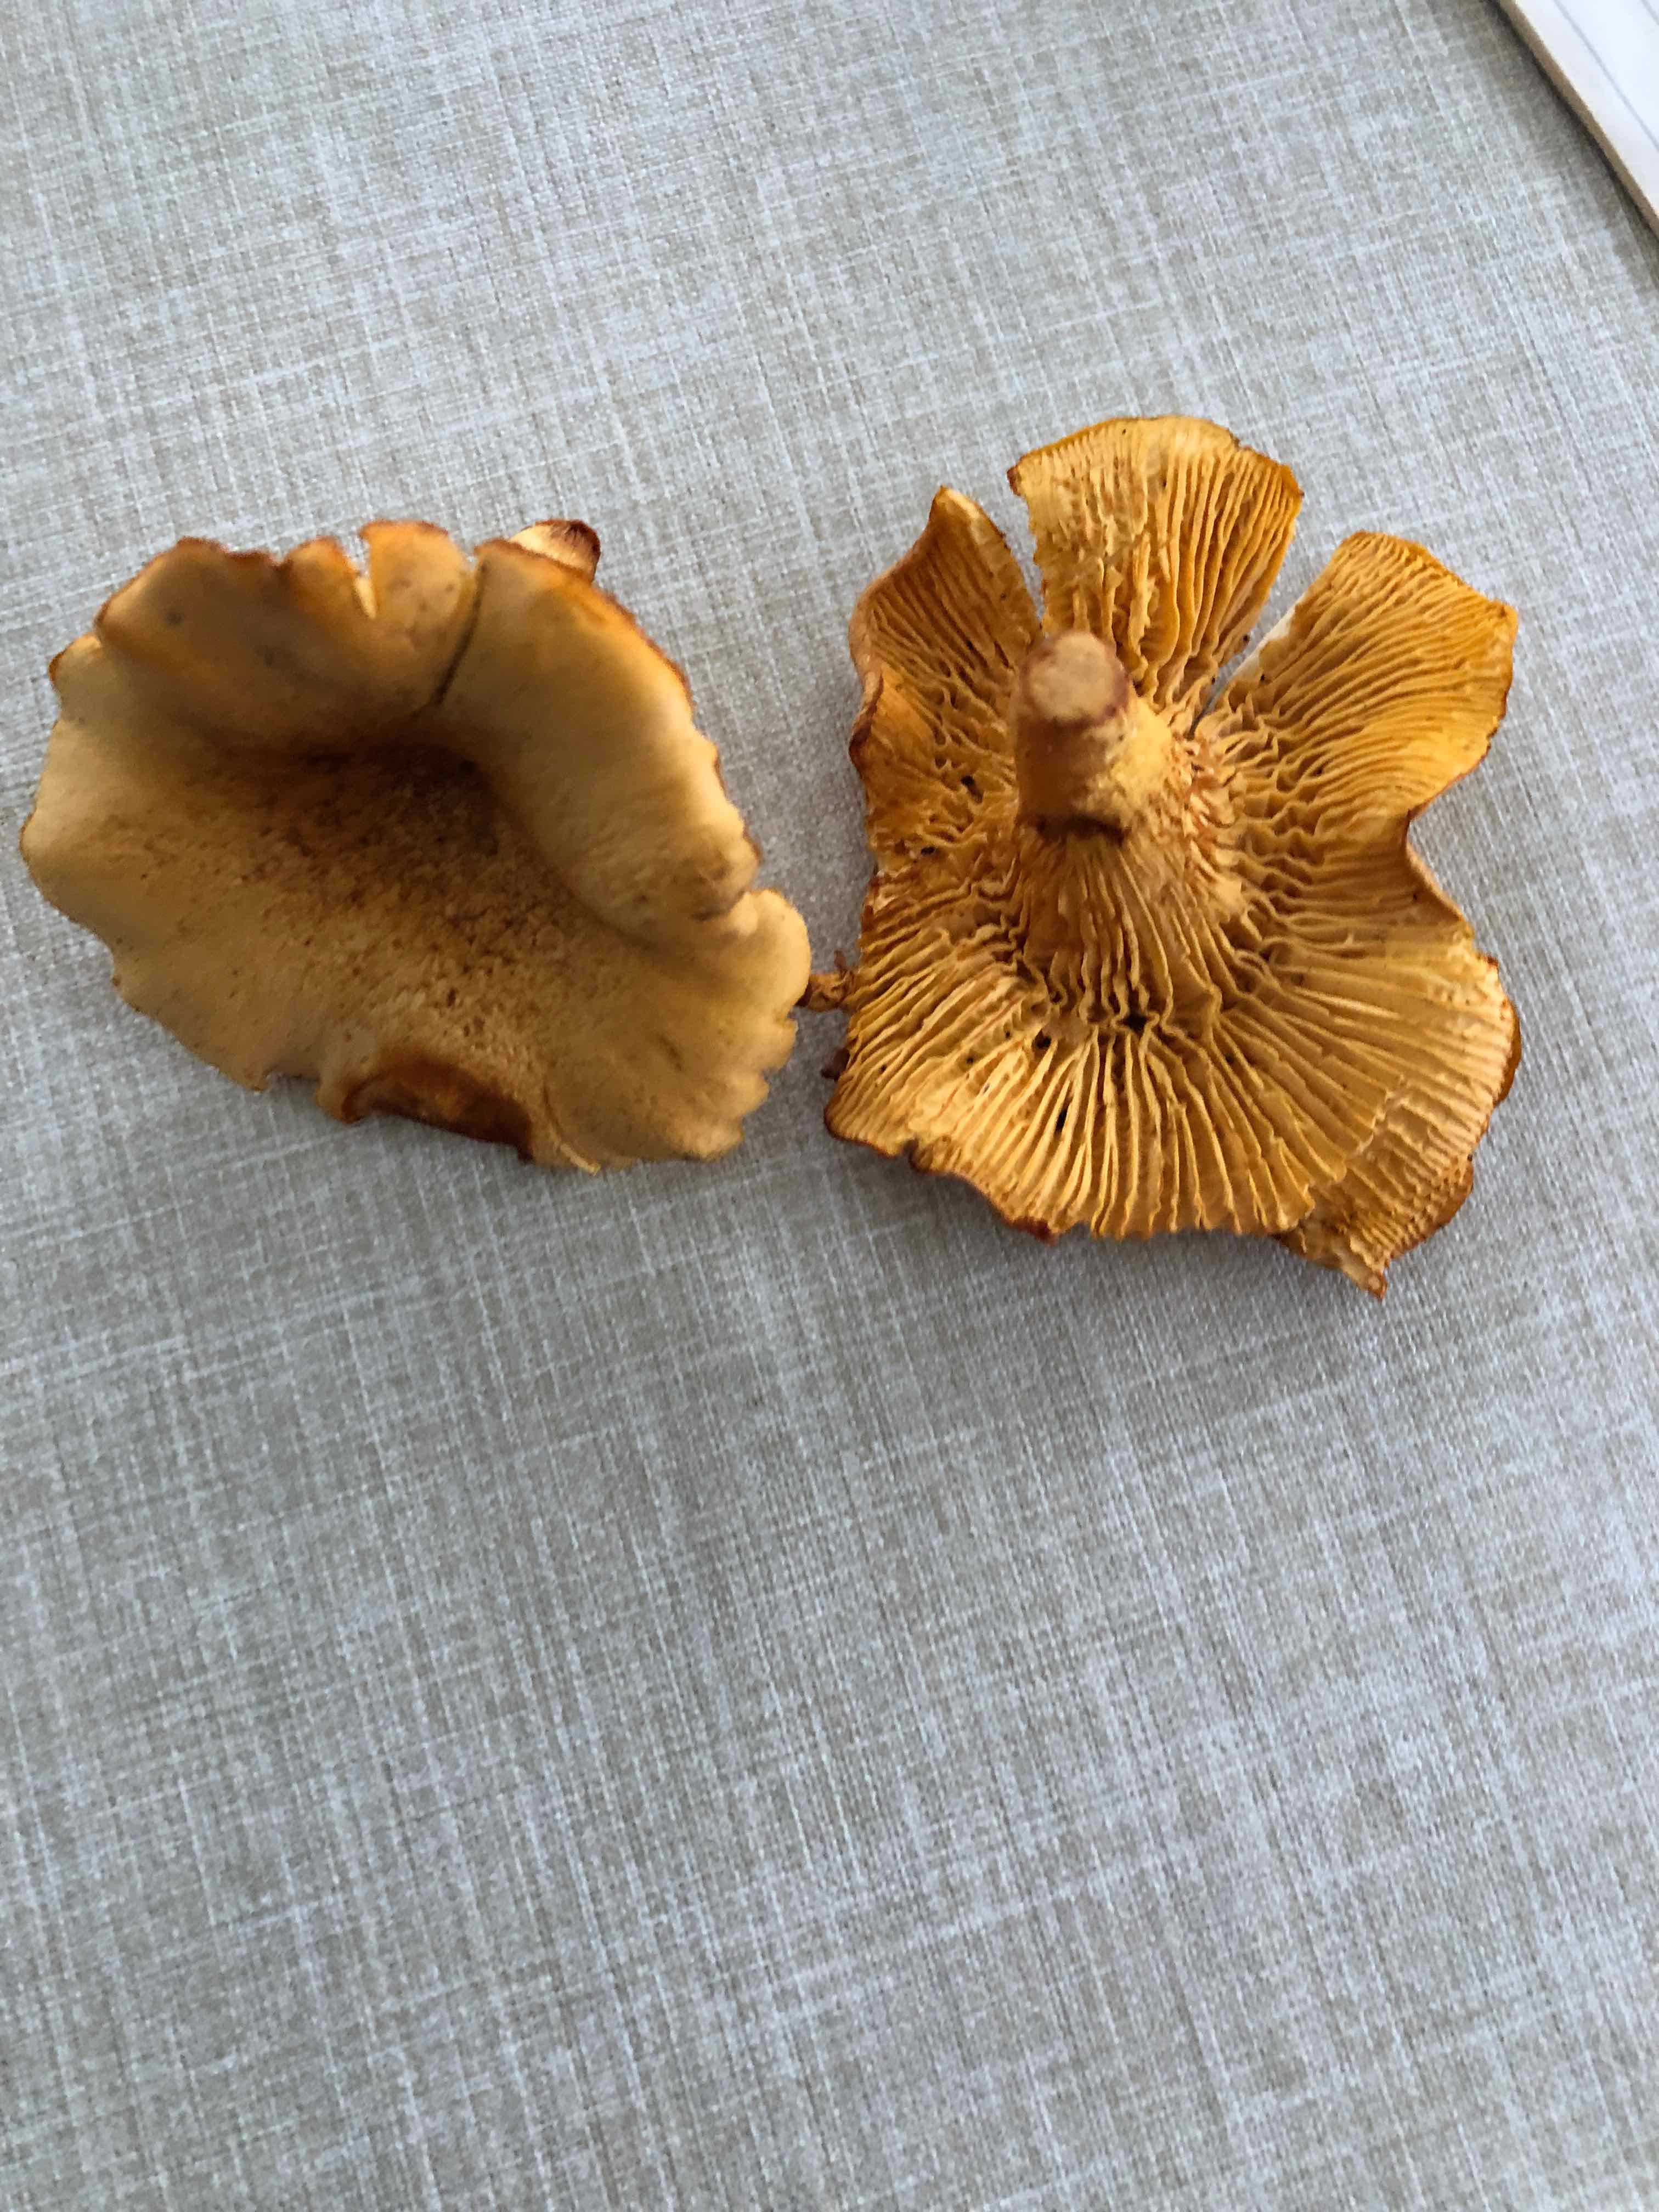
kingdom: Fungi
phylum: Basidiomycota
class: Agaricomycetes
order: Cantharellales
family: Hydnaceae
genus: Cantharellus
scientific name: Cantharellus
